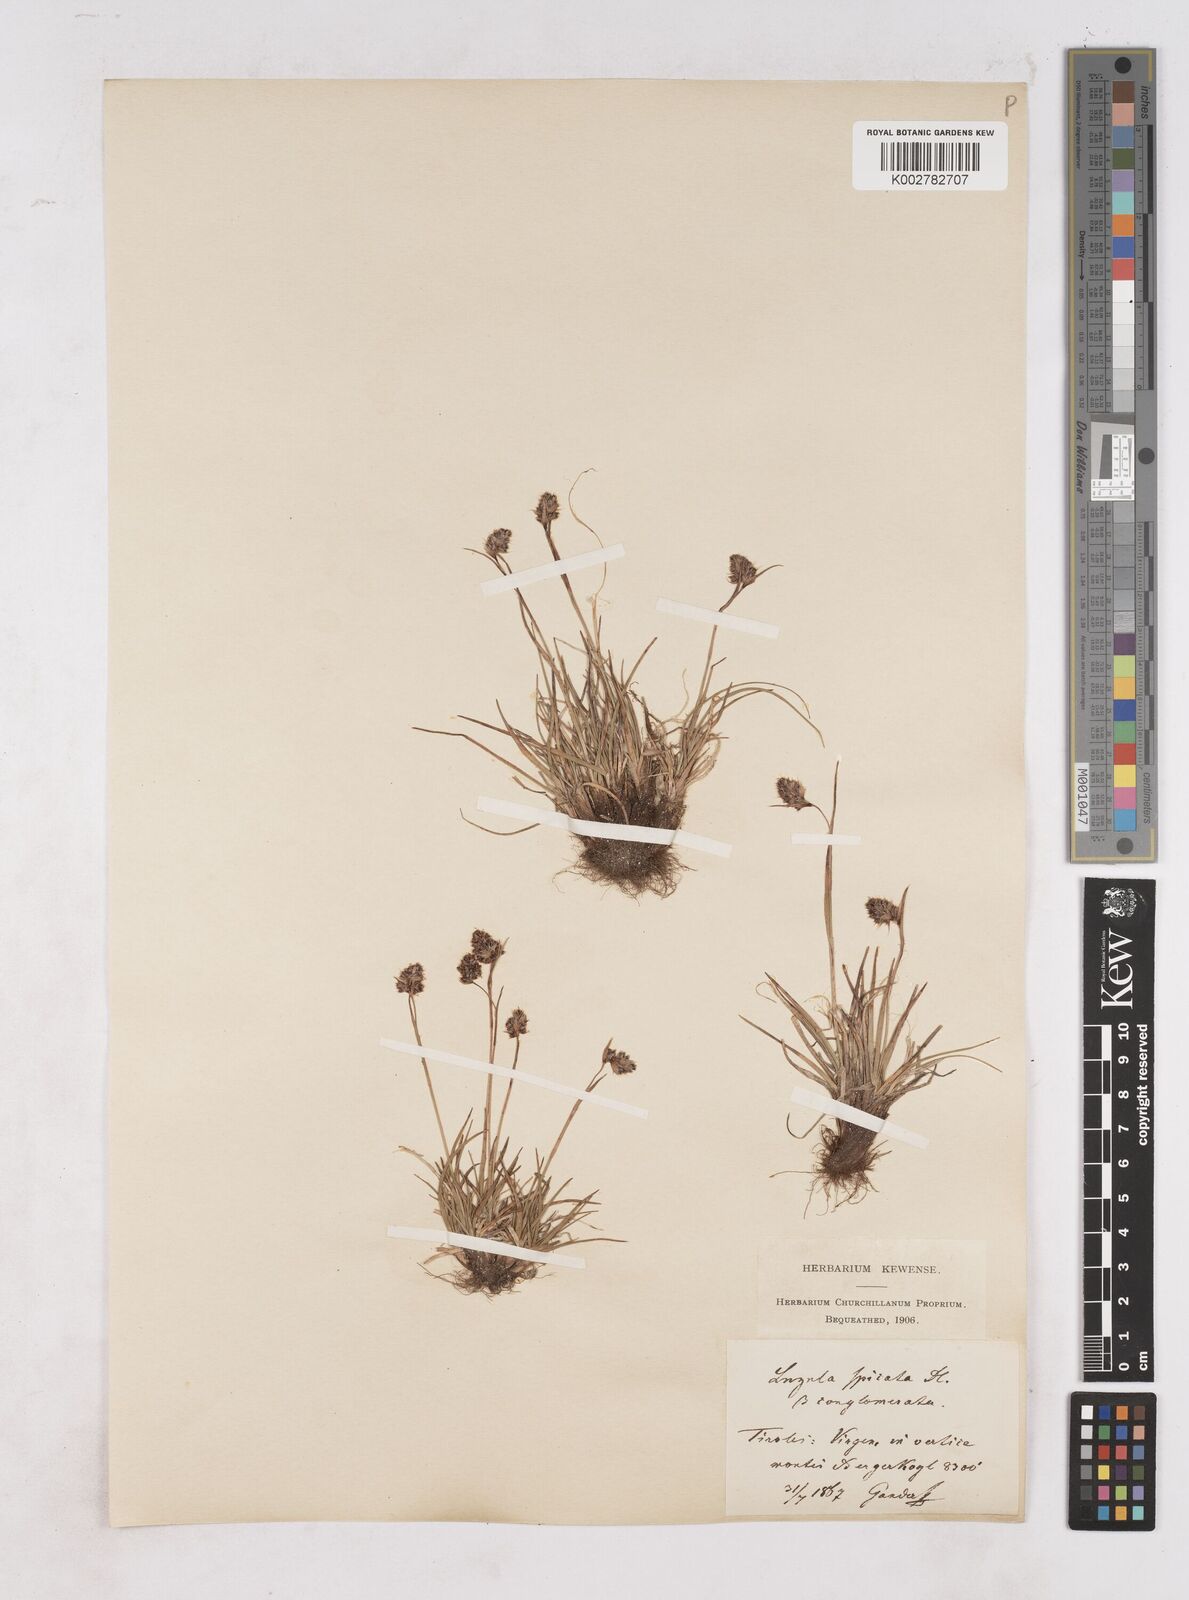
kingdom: Plantae
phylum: Tracheophyta
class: Liliopsida
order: Poales
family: Juncaceae
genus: Luzula
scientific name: Luzula spicata
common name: Spiked wood-rush
